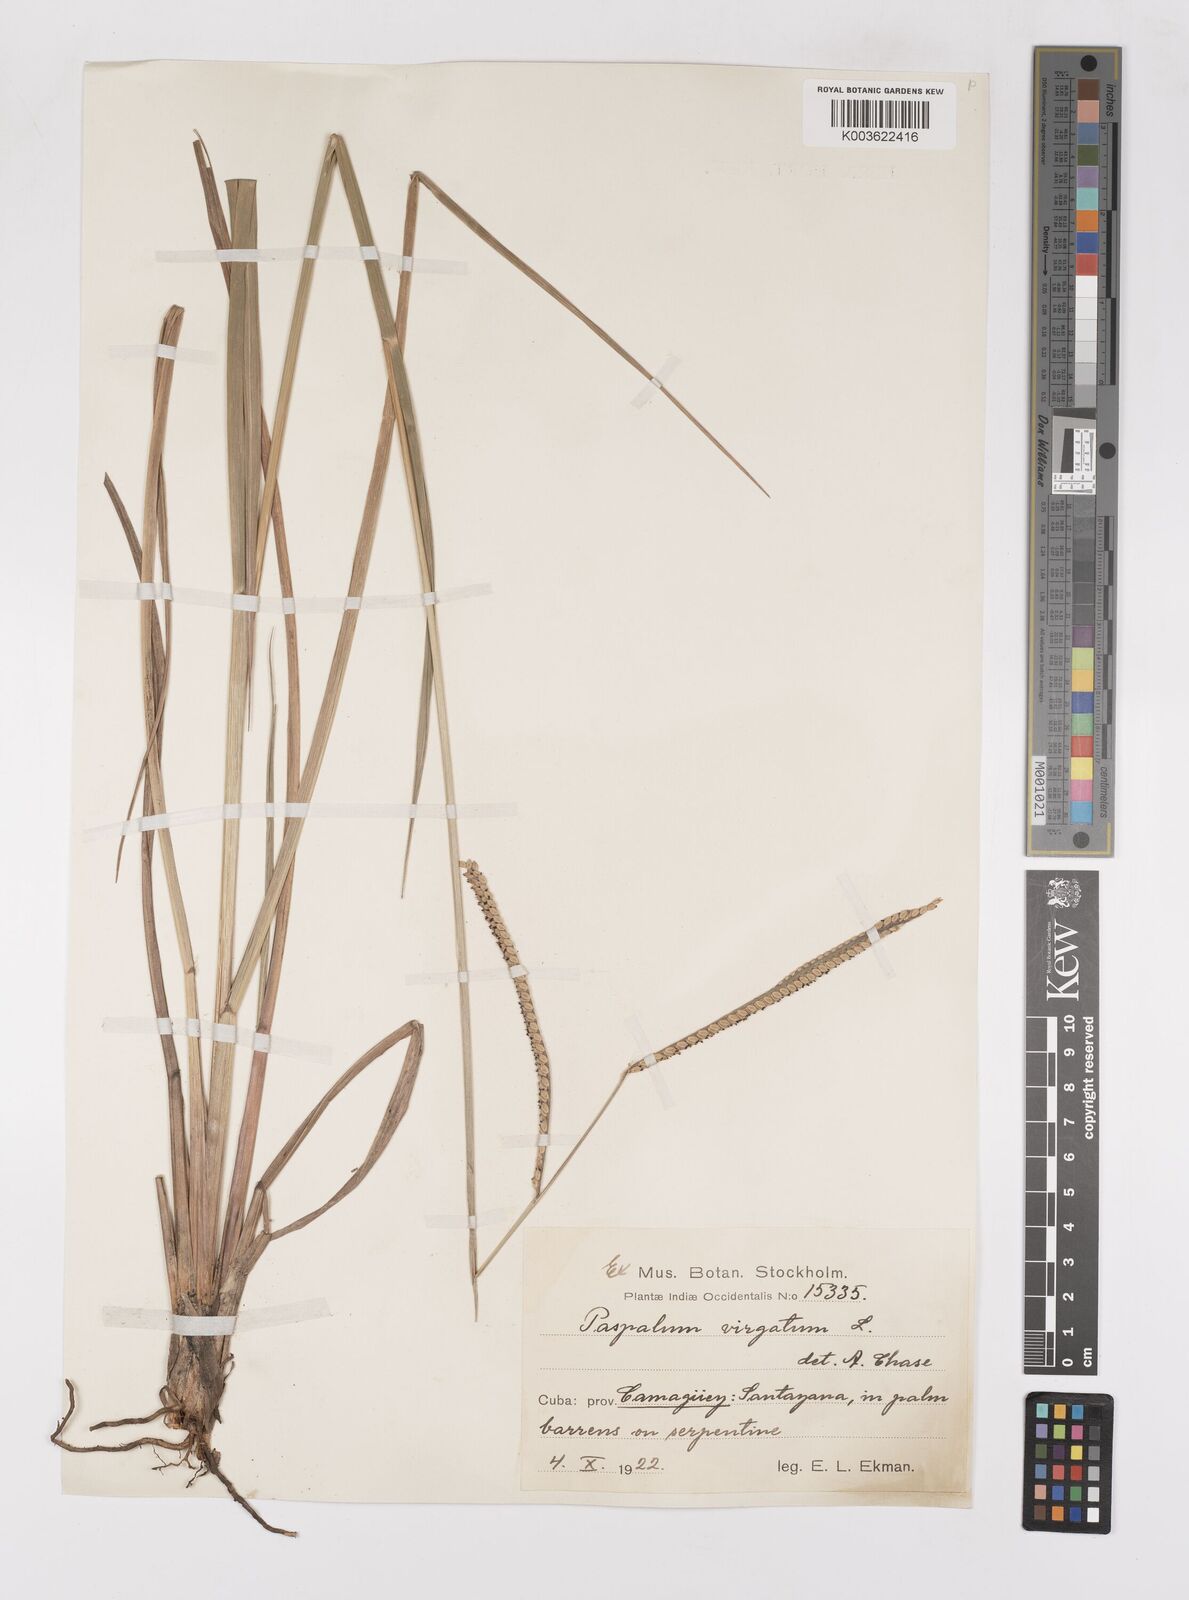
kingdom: Plantae
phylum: Tracheophyta
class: Liliopsida
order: Poales
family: Poaceae
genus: Paspalum
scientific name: Paspalum virgatum
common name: Talquezal
